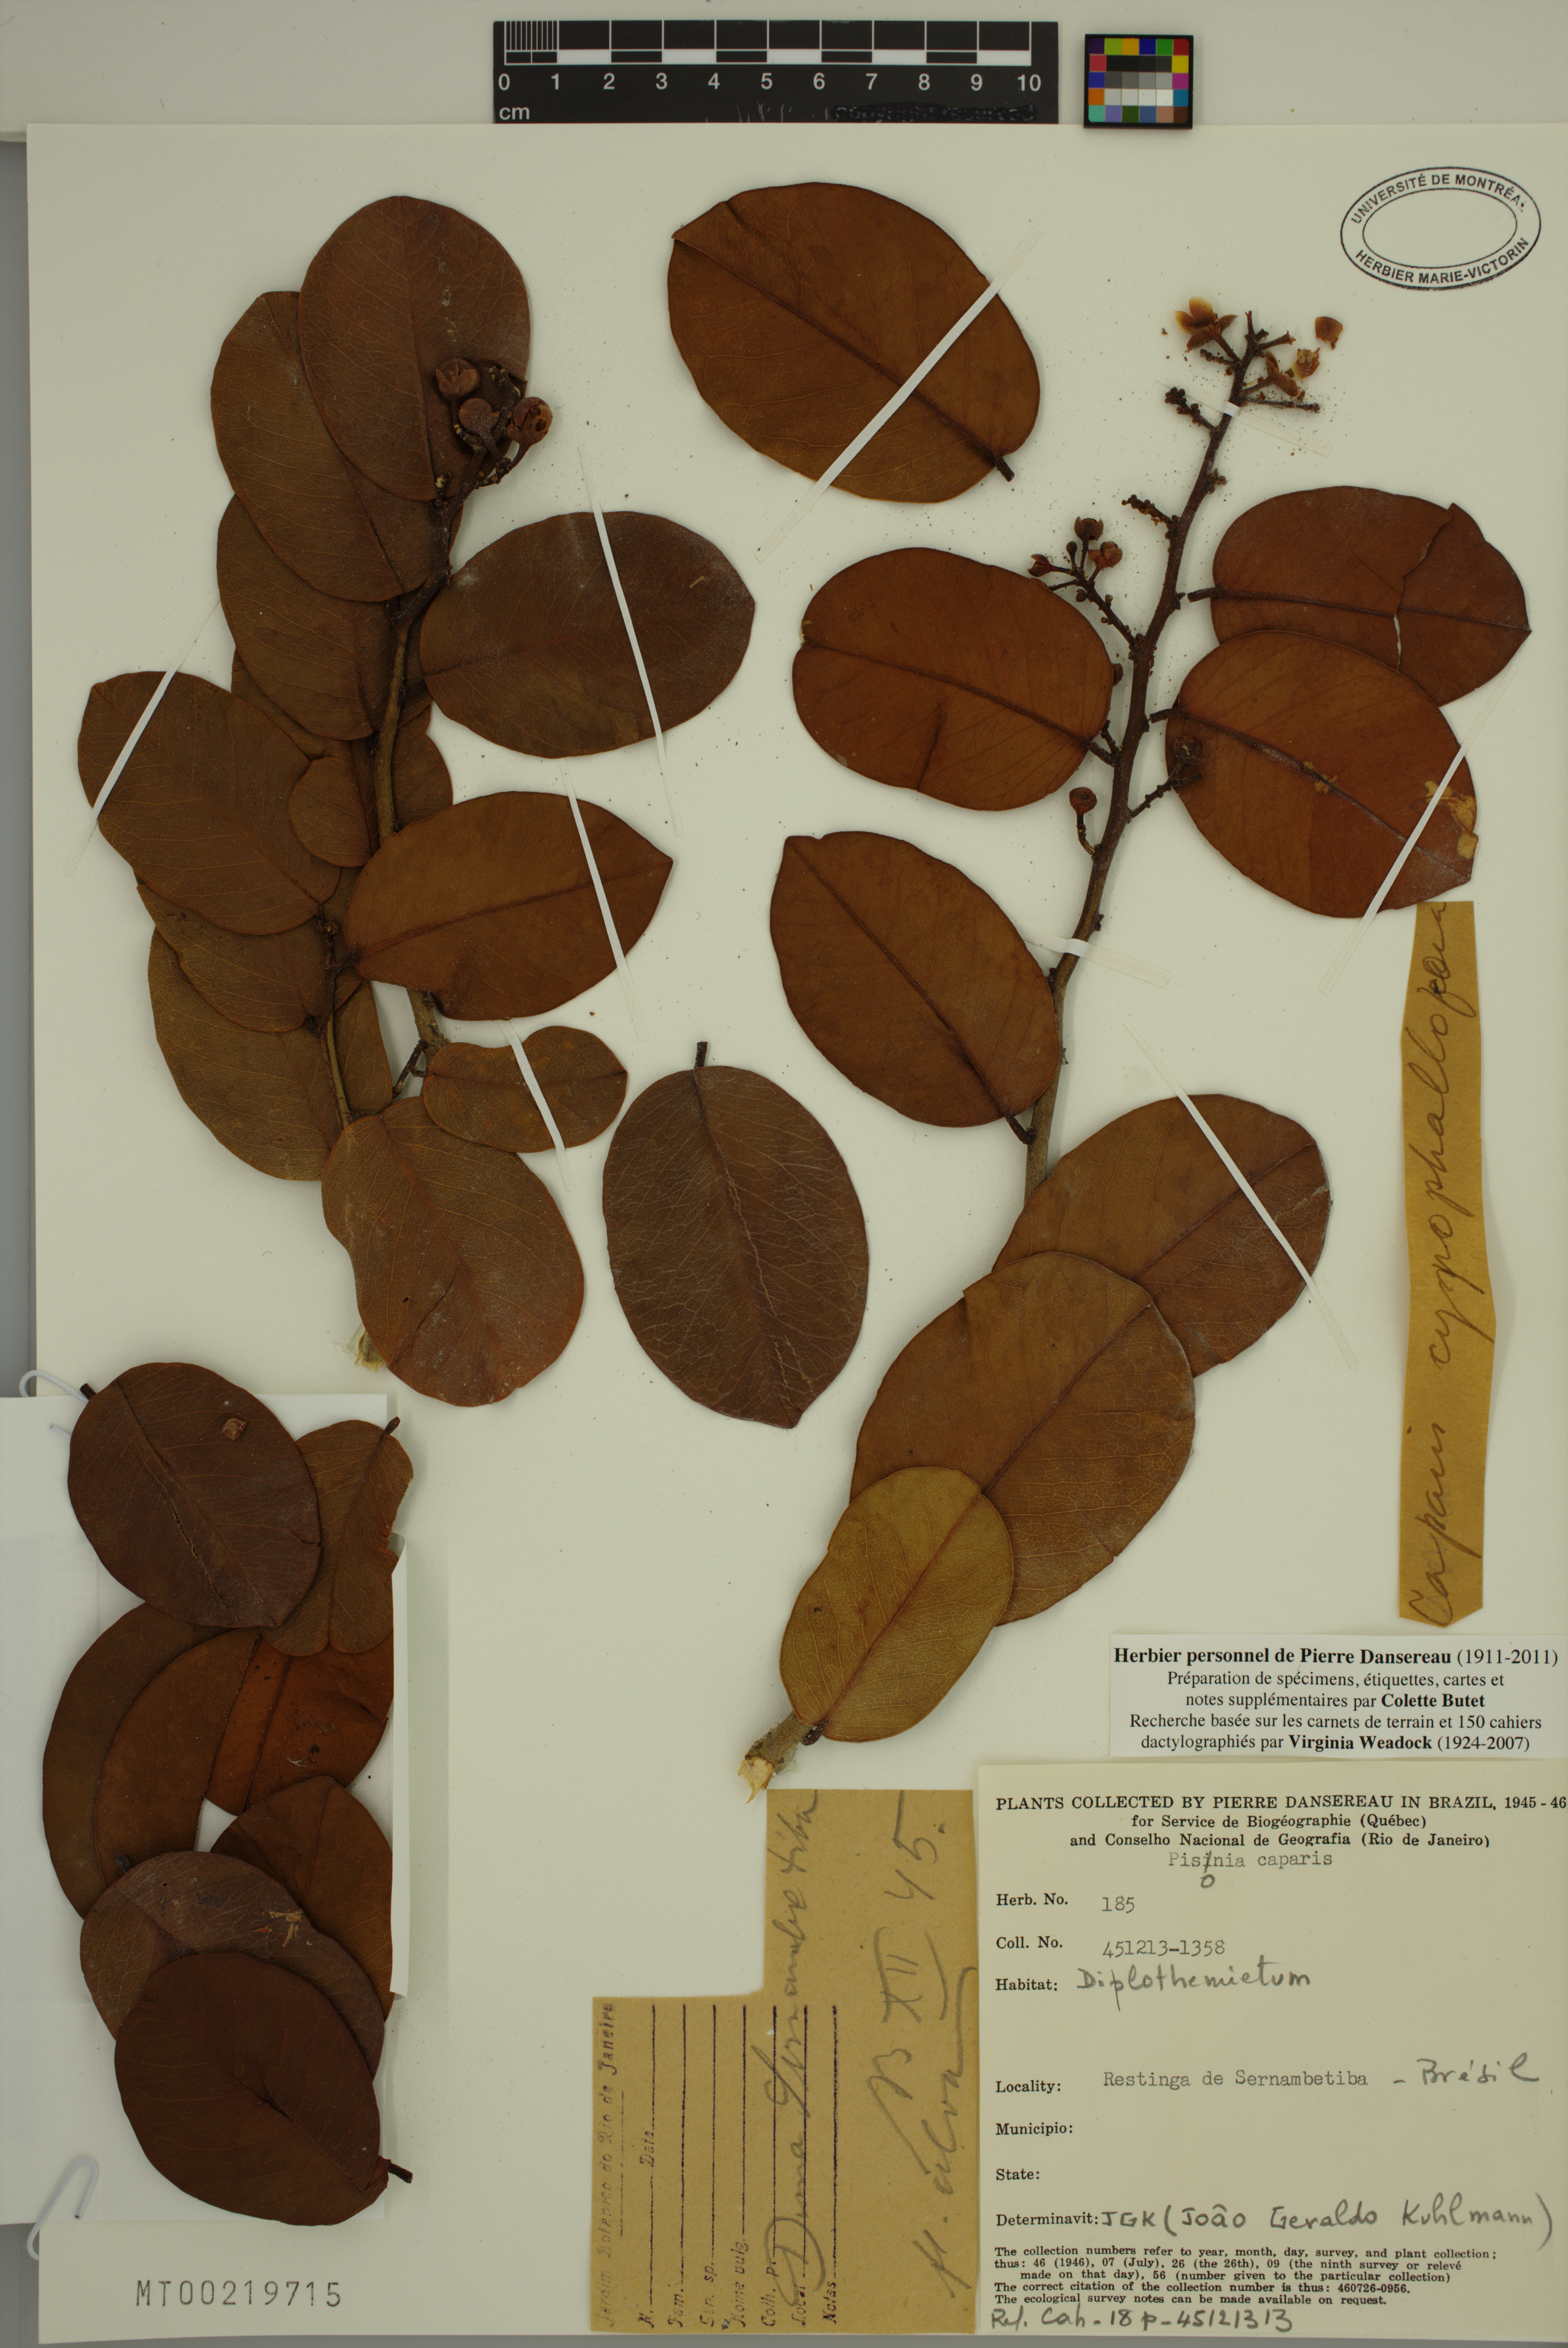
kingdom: Plantae
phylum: Tracheophyta
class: Magnoliopsida
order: Caryophyllales
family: Nyctaginaceae
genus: Pisonia
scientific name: Pisonia
